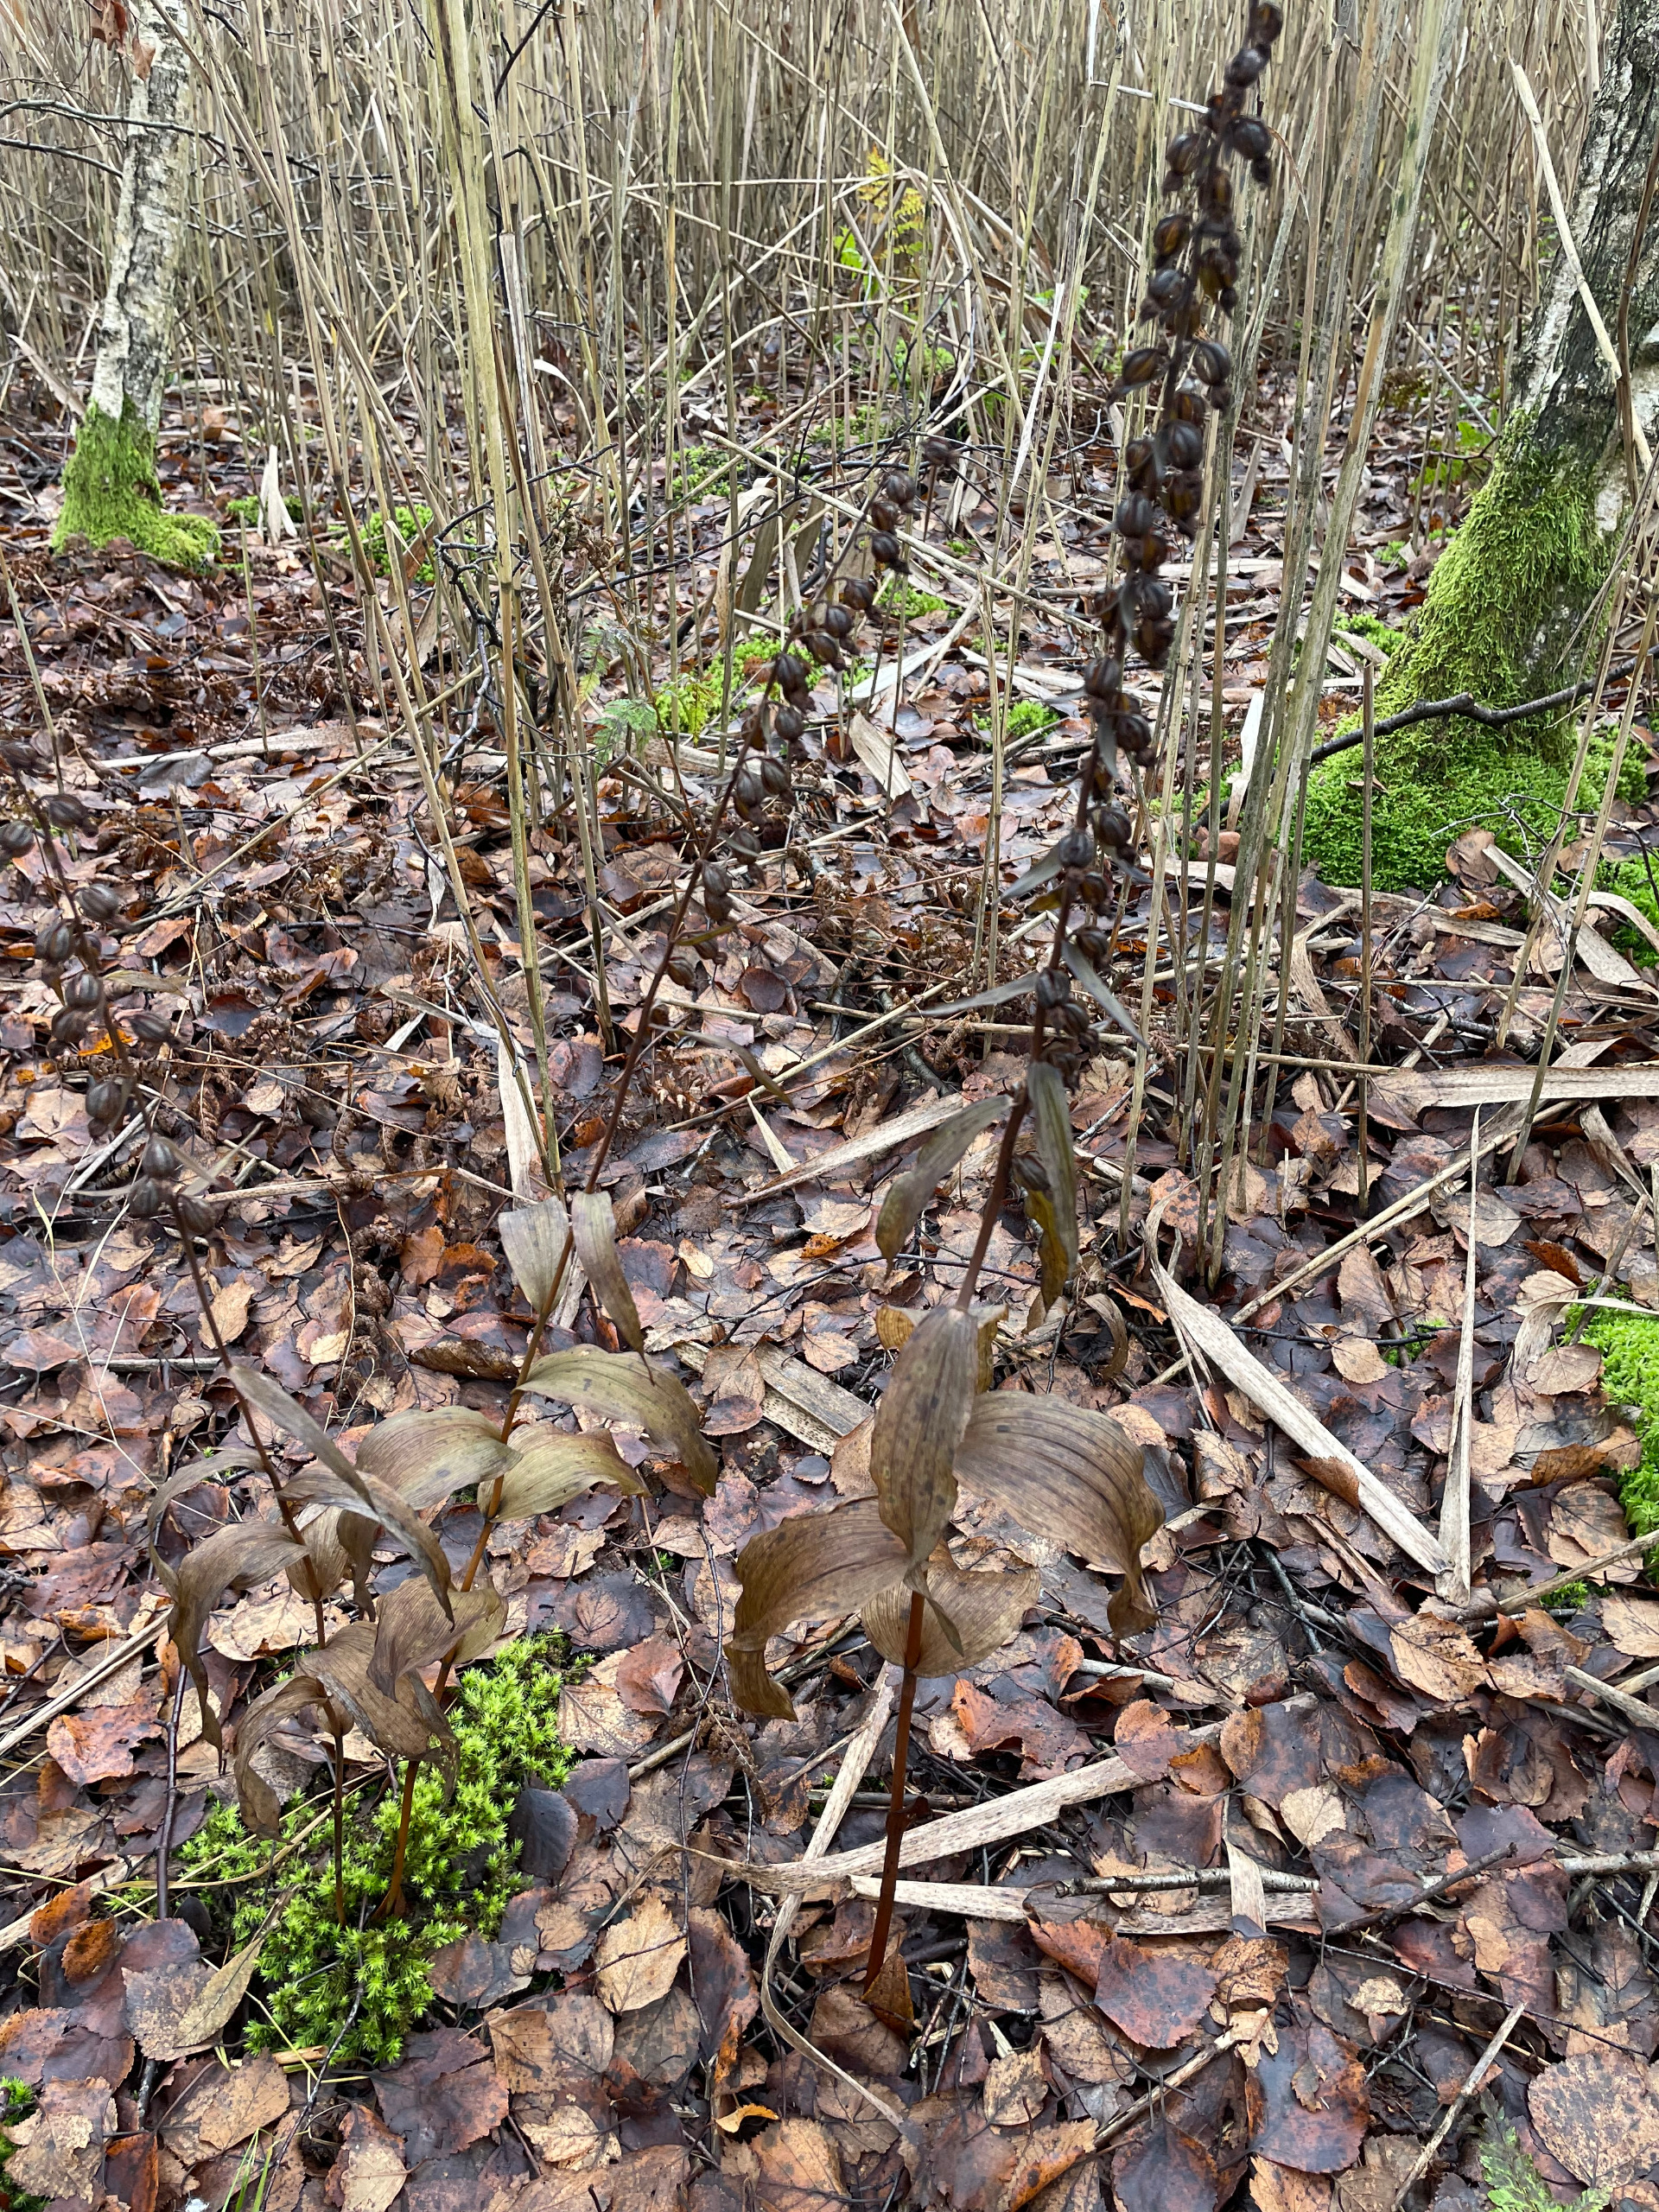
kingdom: Plantae
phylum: Tracheophyta
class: Liliopsida
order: Asparagales
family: Orchidaceae
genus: Epipactis
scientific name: Epipactis helleborine
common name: Skov-hullæbe
